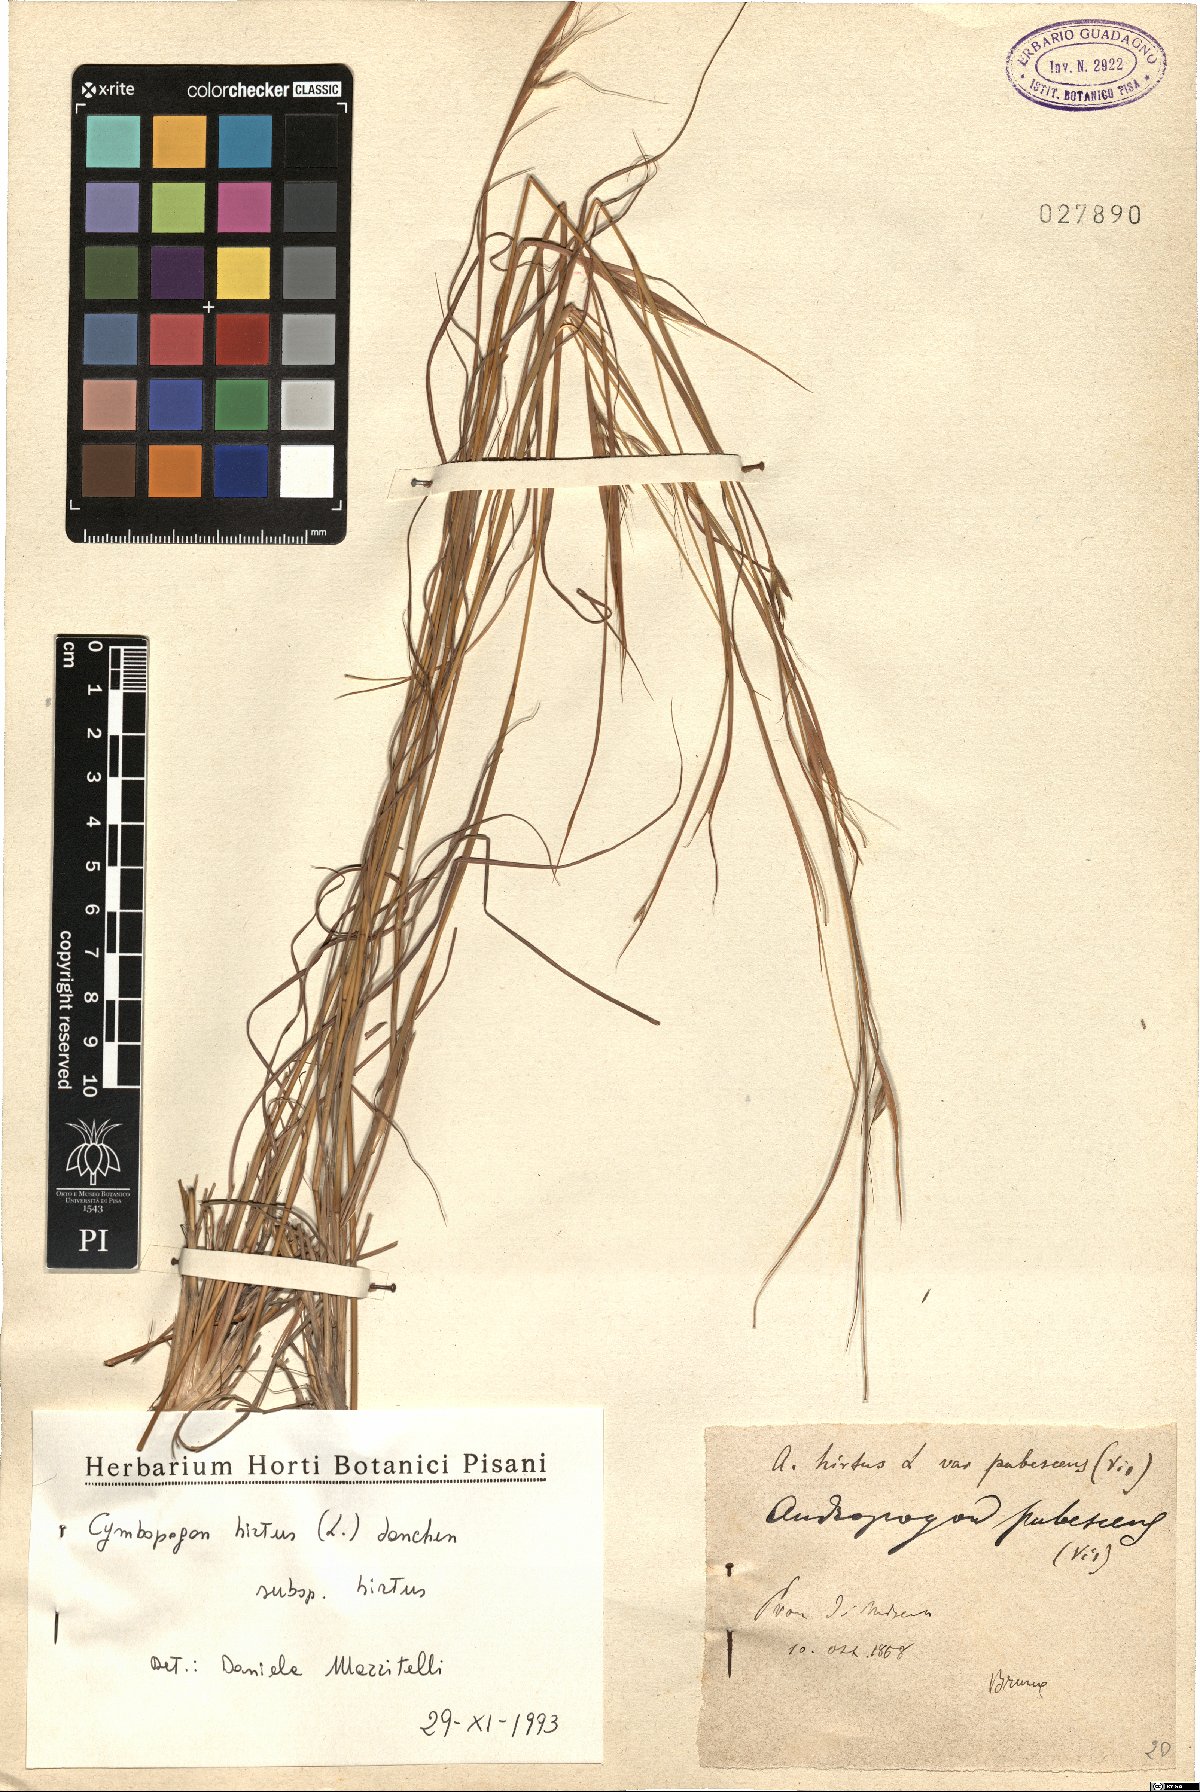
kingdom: Plantae
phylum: Tracheophyta
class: Liliopsida
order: Poales
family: Poaceae
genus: Cymbopogon
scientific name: Cymbopogon hirtus
